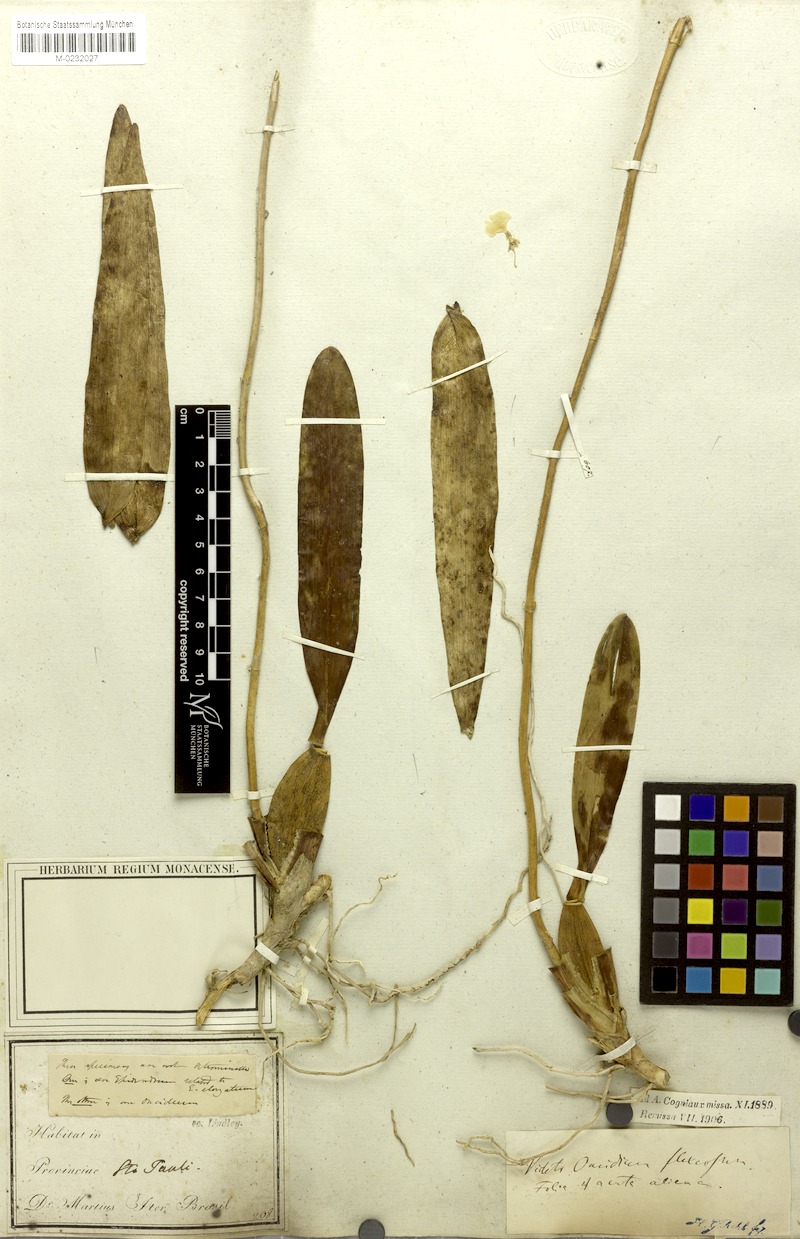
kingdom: Plantae
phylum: Tracheophyta
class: Liliopsida
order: Asparagales
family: Orchidaceae
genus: Cyrtochilum
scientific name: Cyrtochilum cimiciferum
